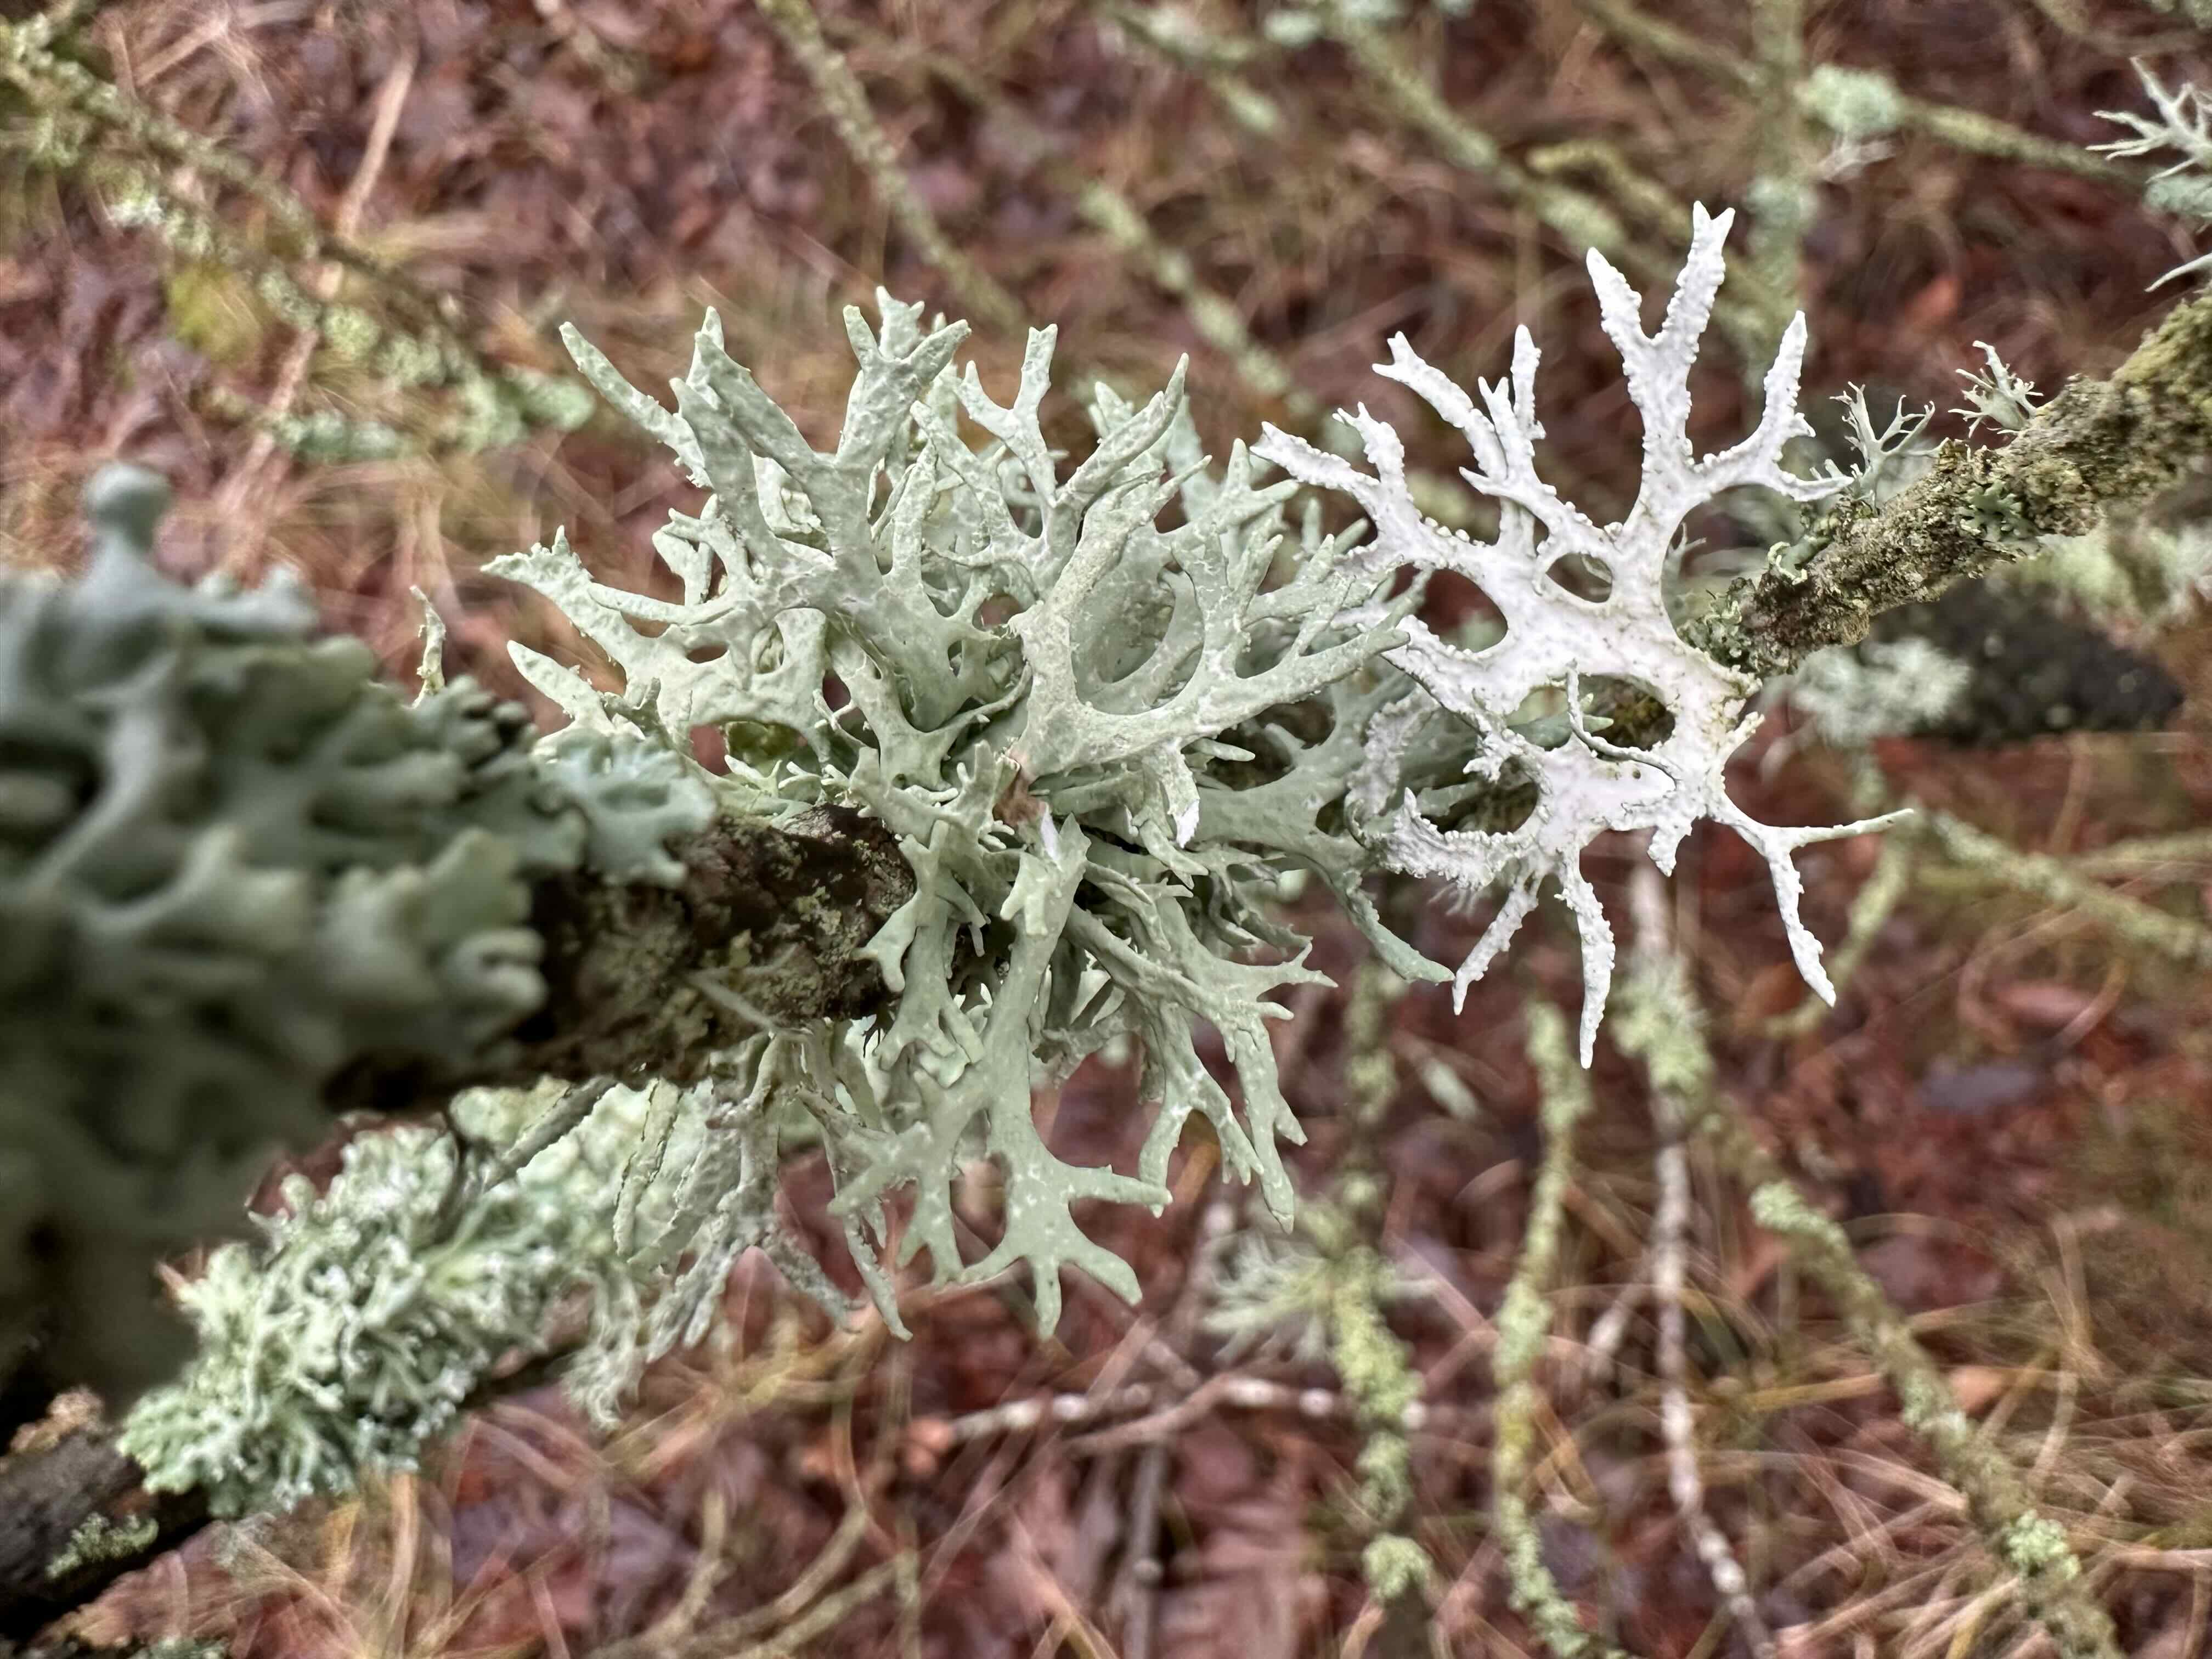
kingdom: Fungi
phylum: Ascomycota
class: Lecanoromycetes
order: Lecanorales
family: Parmeliaceae
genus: Evernia
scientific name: Evernia prunastri
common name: almindelig slåenlav
